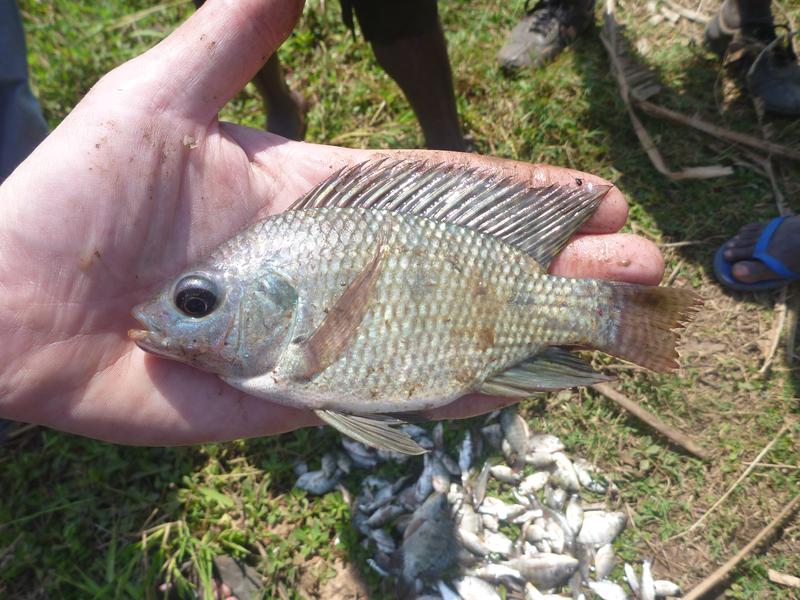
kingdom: Animalia
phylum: Chordata
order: Perciformes
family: Cichlidae
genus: Oreochromis
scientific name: Oreochromis niloticus
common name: Nile tilapia
